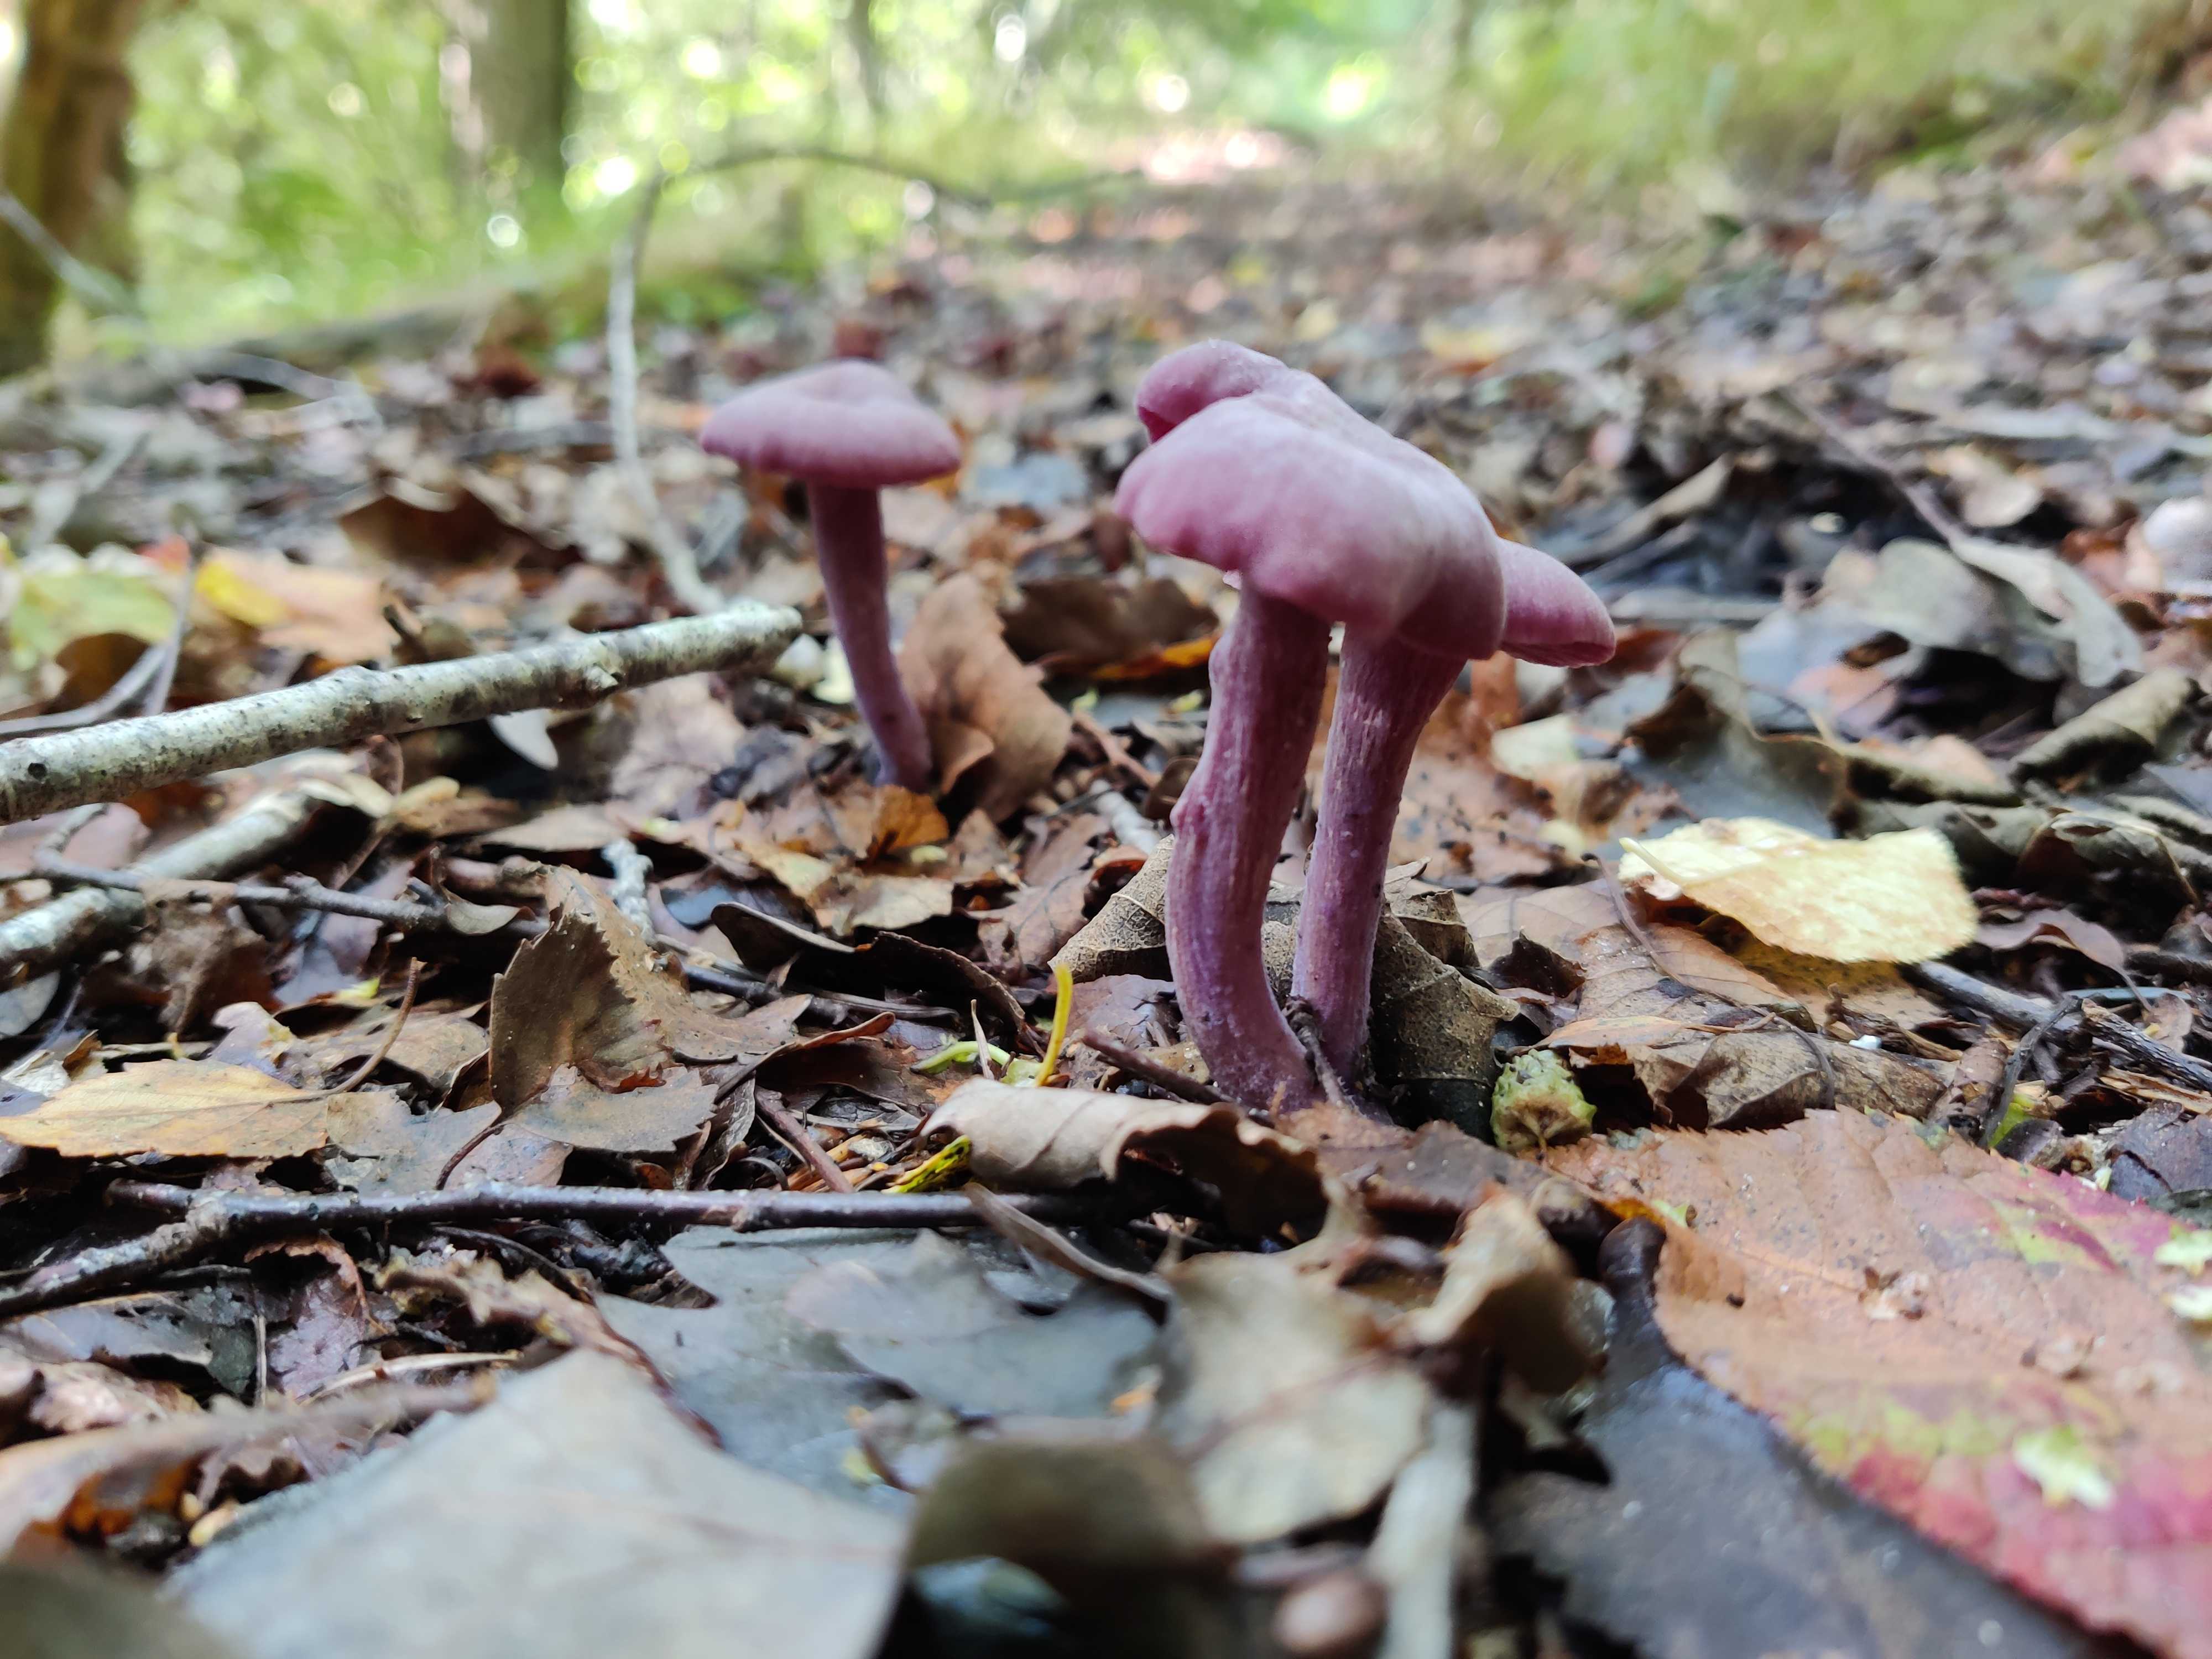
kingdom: Fungi
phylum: Basidiomycota
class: Agaricomycetes
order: Agaricales
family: Hydnangiaceae
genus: Laccaria
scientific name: Laccaria amethystina
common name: violet ametysthat
